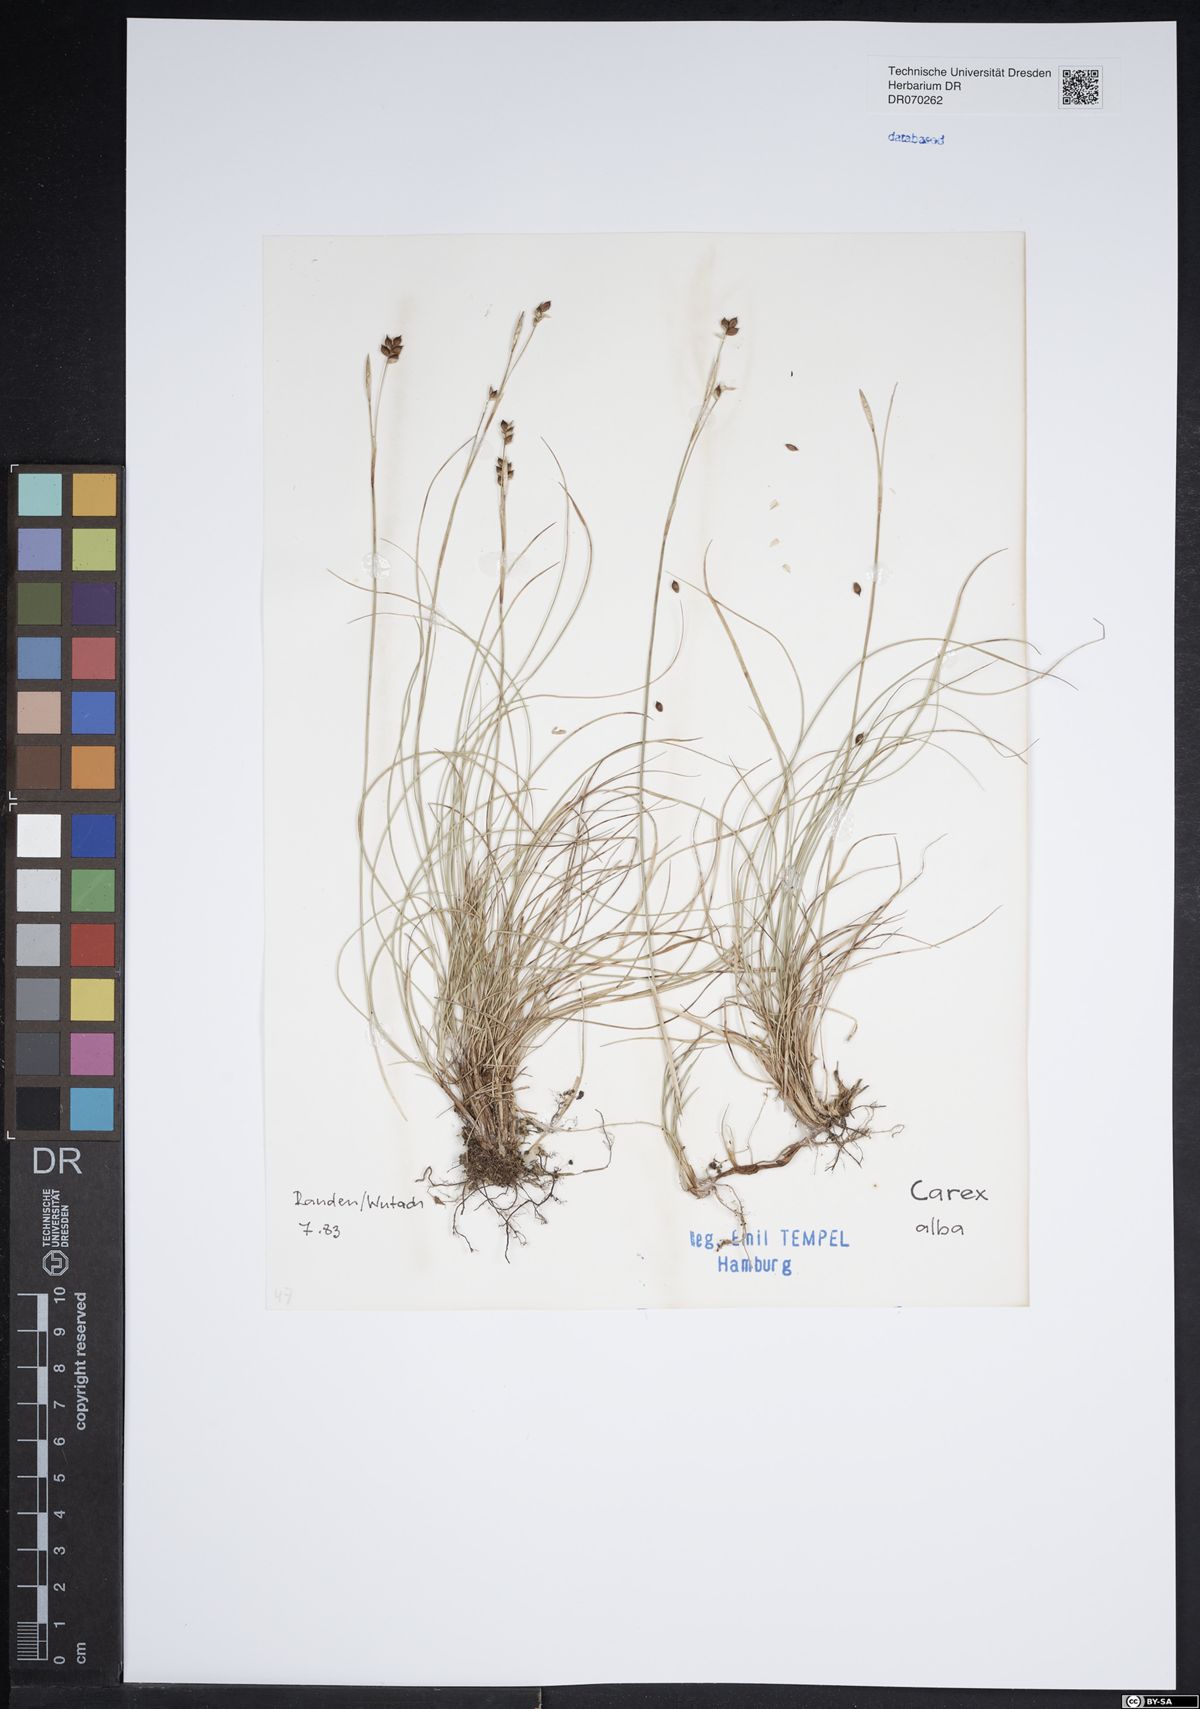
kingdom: Plantae
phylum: Tracheophyta
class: Liliopsida
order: Poales
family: Cyperaceae
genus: Carex
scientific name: Carex alba
